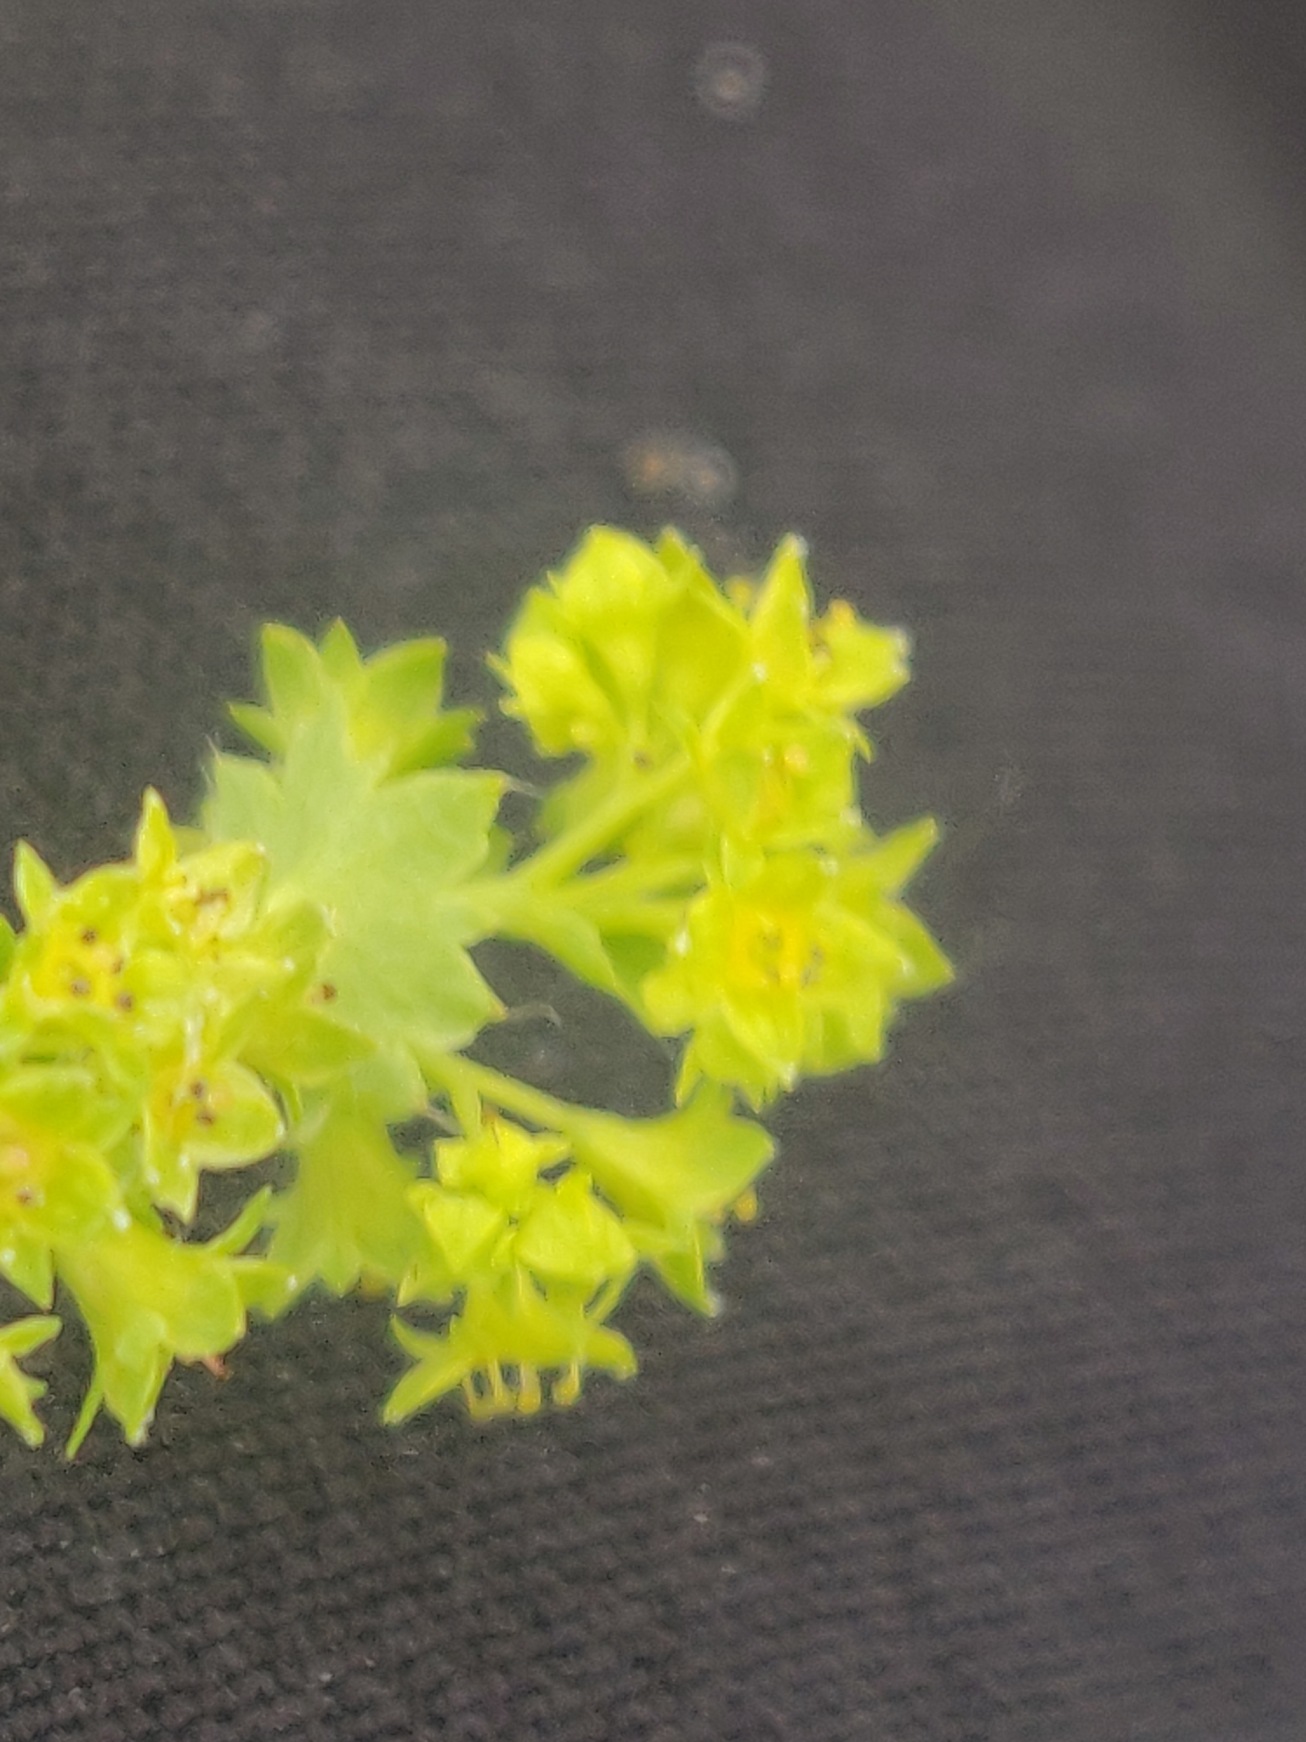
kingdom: Plantae
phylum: Tracheophyta
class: Magnoliopsida
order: Rosales
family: Rosaceae
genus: Alchemilla
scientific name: Alchemilla xanthochlora
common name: Gulgrøn løvefod
